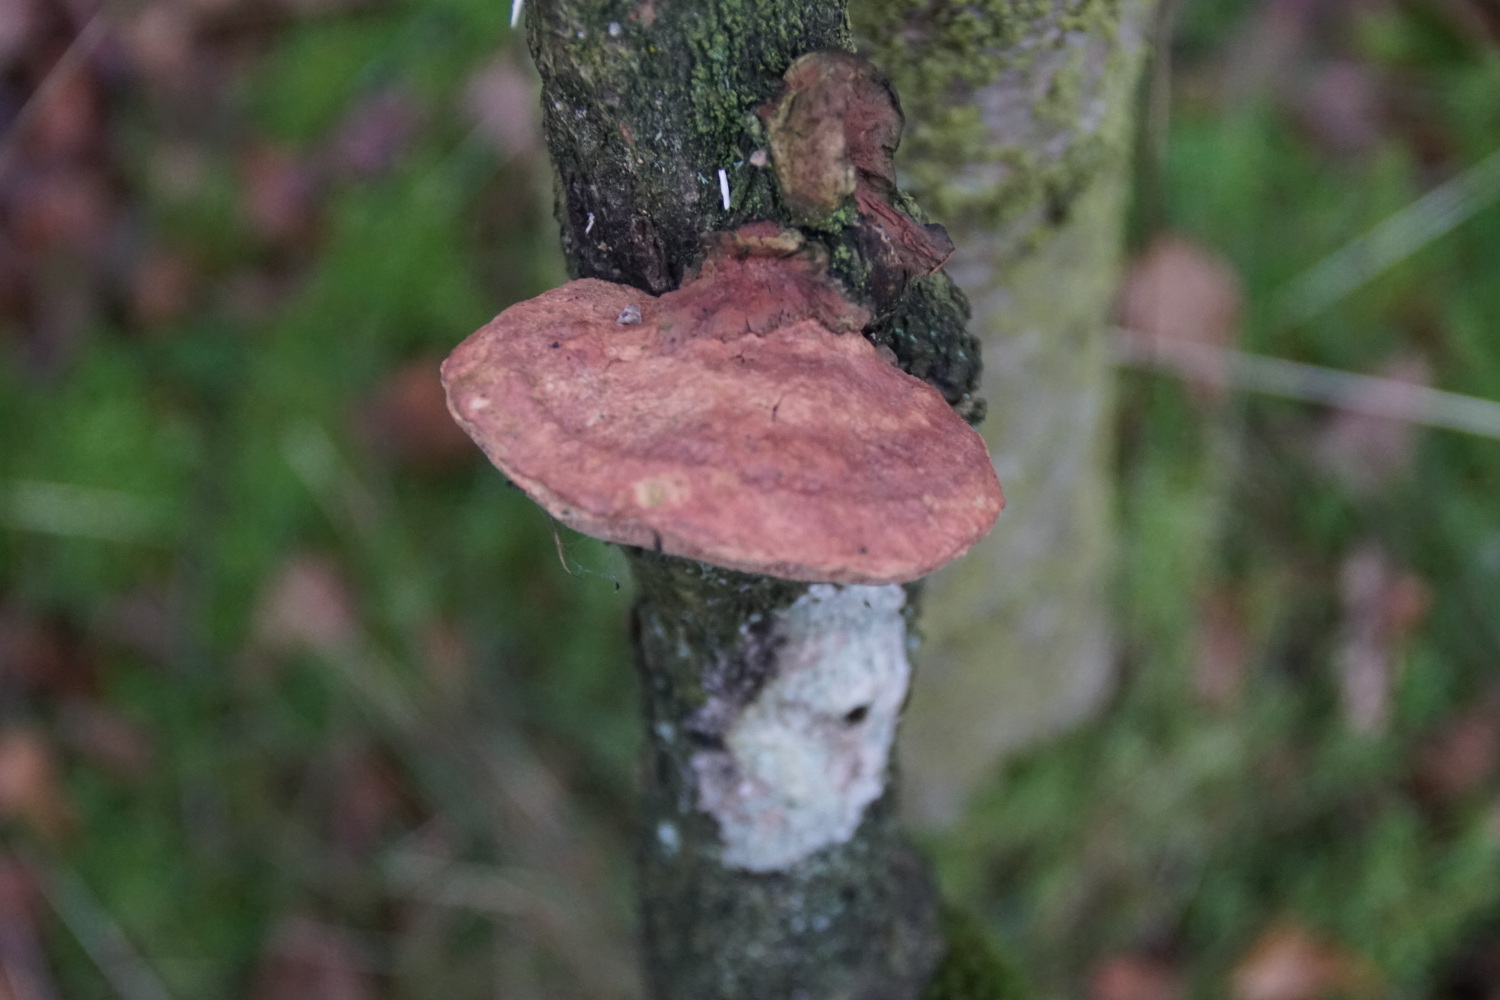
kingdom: Fungi
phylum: Basidiomycota
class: Agaricomycetes
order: Polyporales
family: Phanerochaetaceae
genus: Hapalopilus
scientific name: Hapalopilus rutilans
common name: rødlig okkerporesvamp
